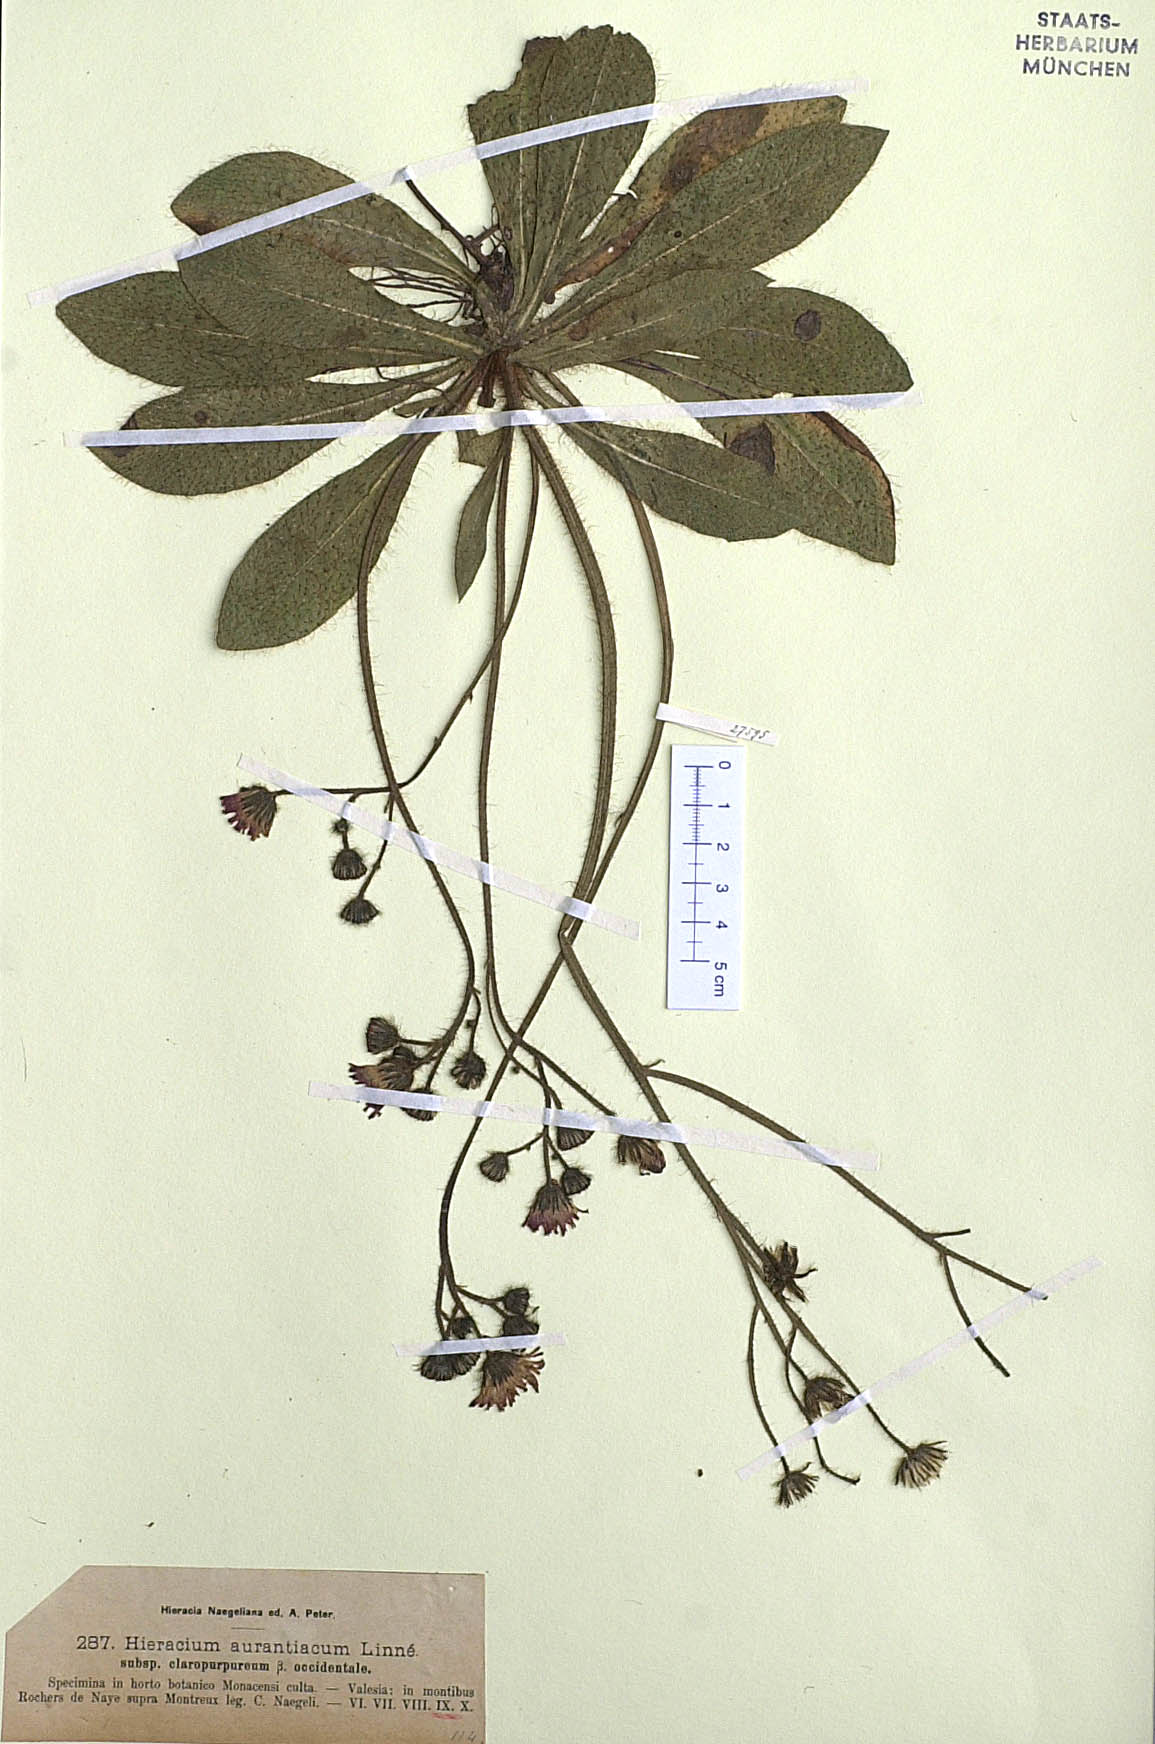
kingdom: Plantae
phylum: Tracheophyta
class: Magnoliopsida
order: Asterales
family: Asteraceae
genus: Pilosella
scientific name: Pilosella aurantiaca
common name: Fox-and-cubs
